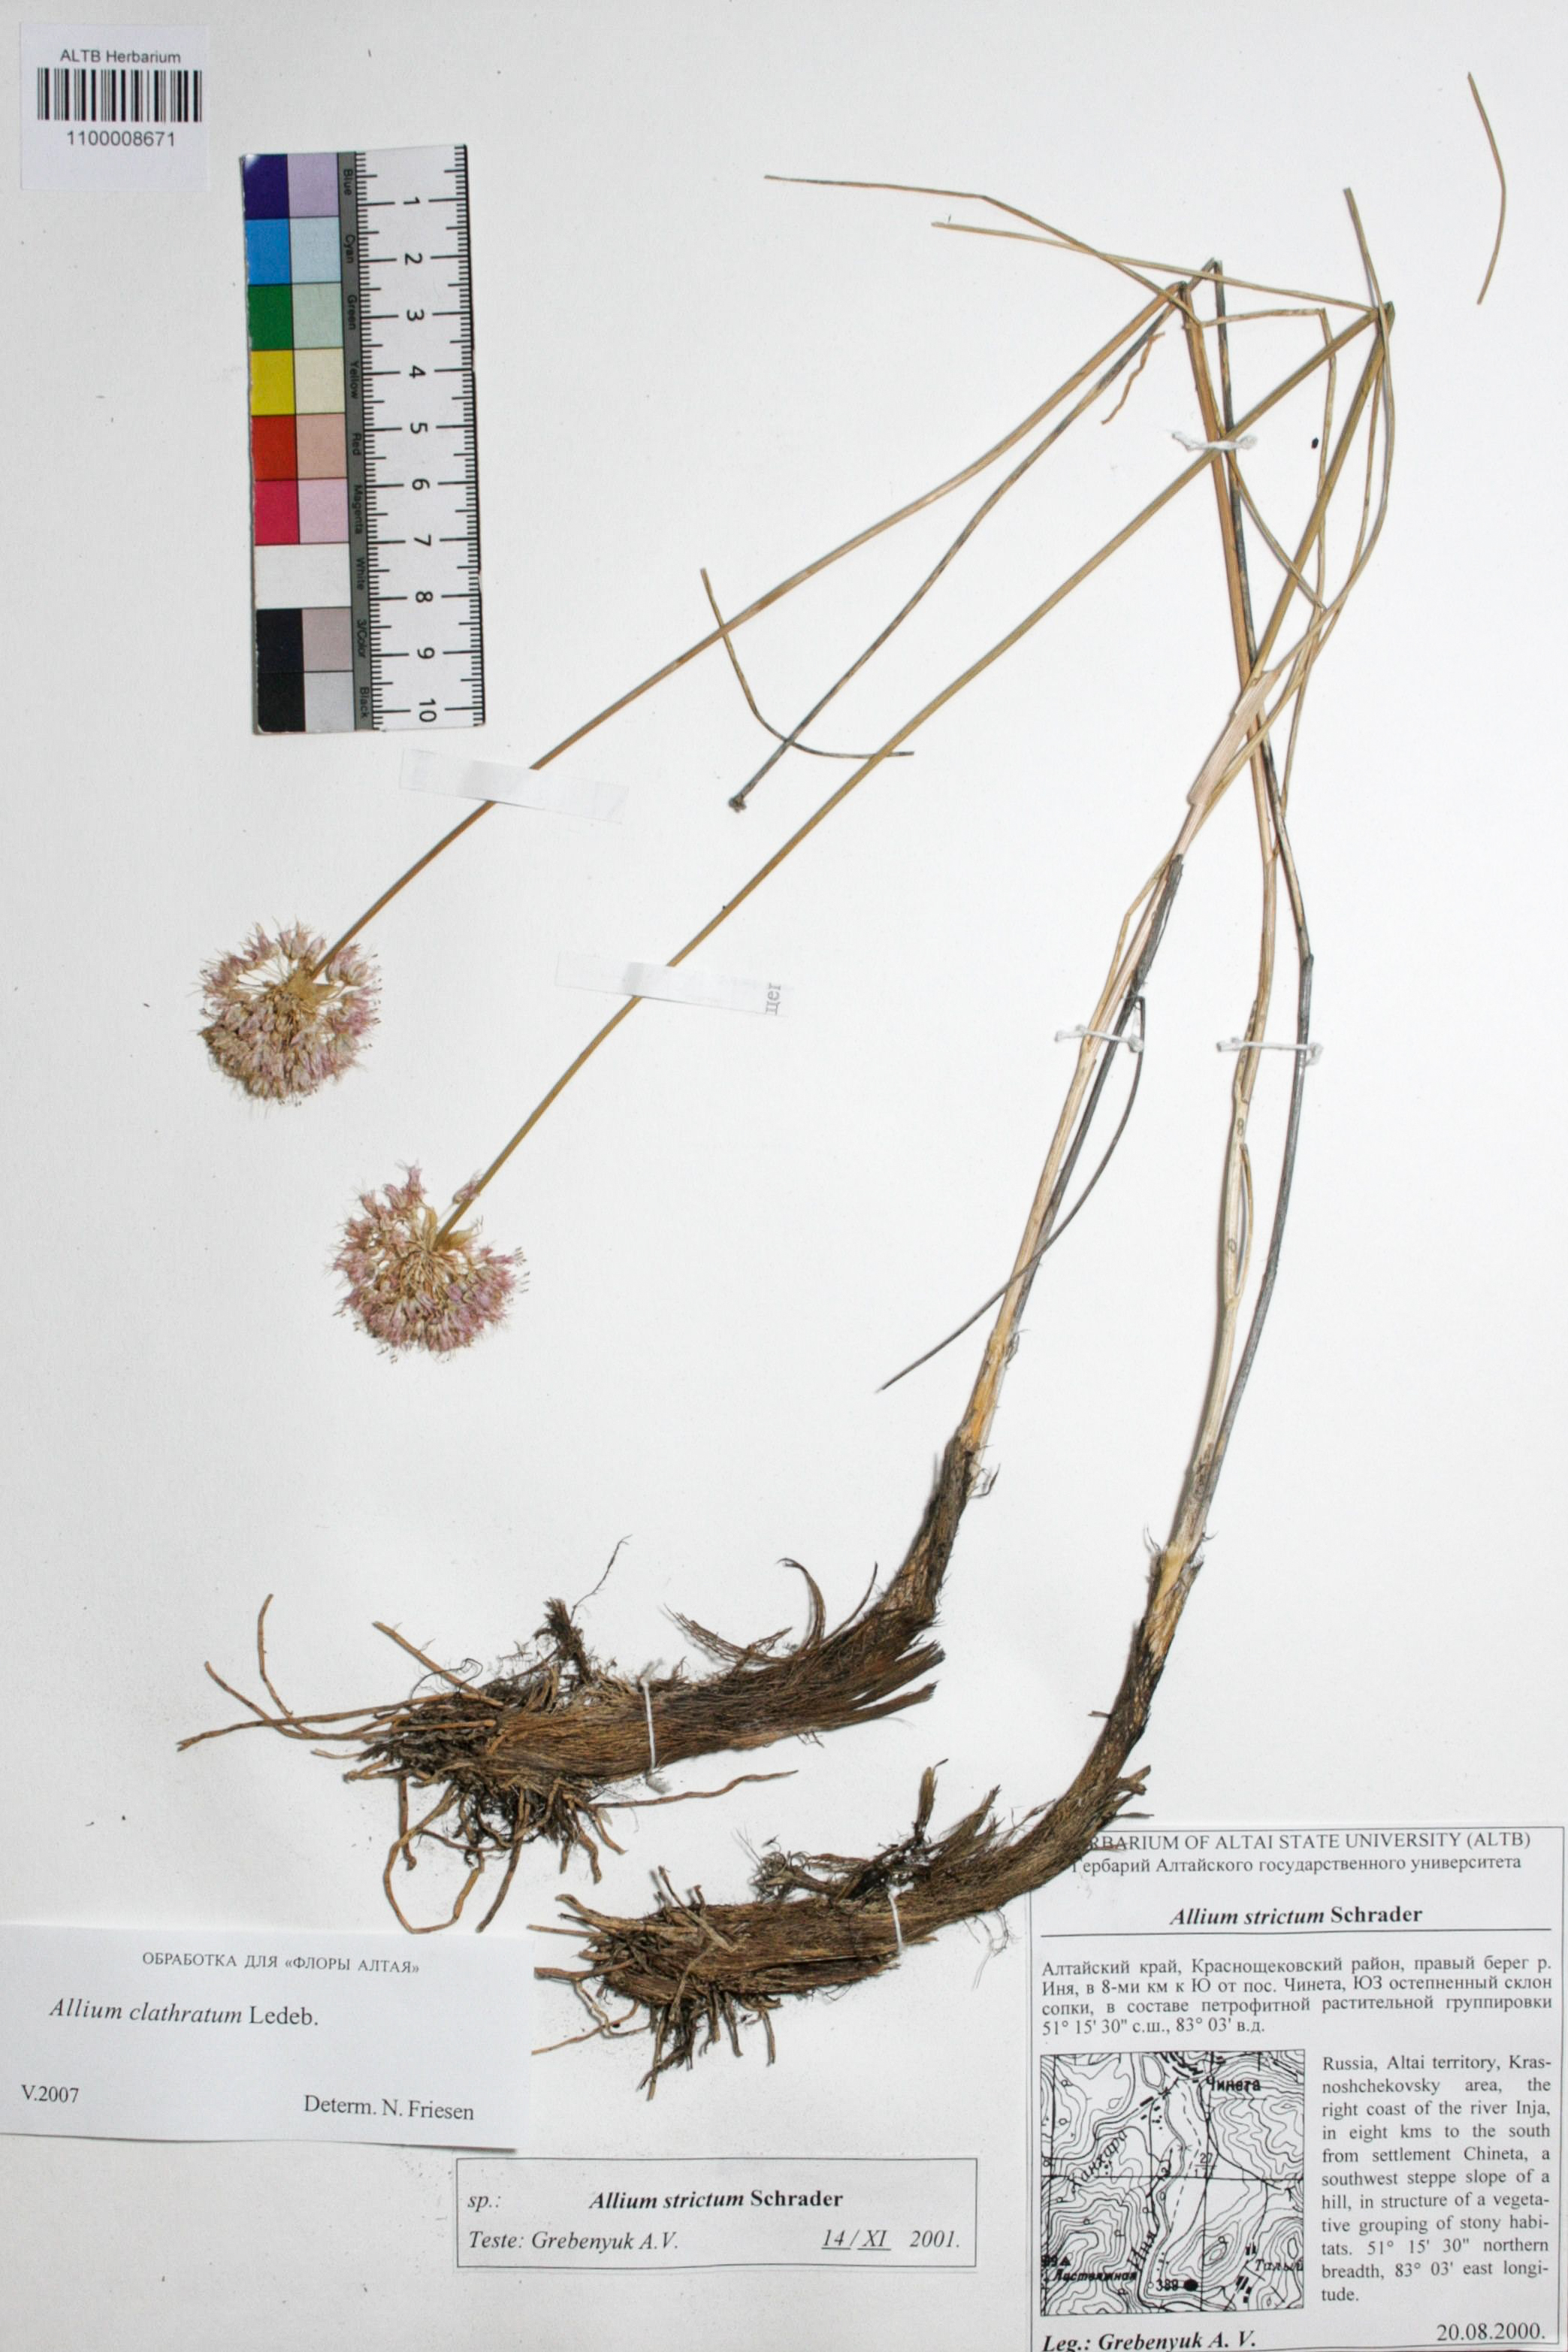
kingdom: Plantae
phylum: Tracheophyta
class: Liliopsida
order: Asparagales
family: Amaryllidaceae
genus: Allium
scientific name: Allium clathratum
